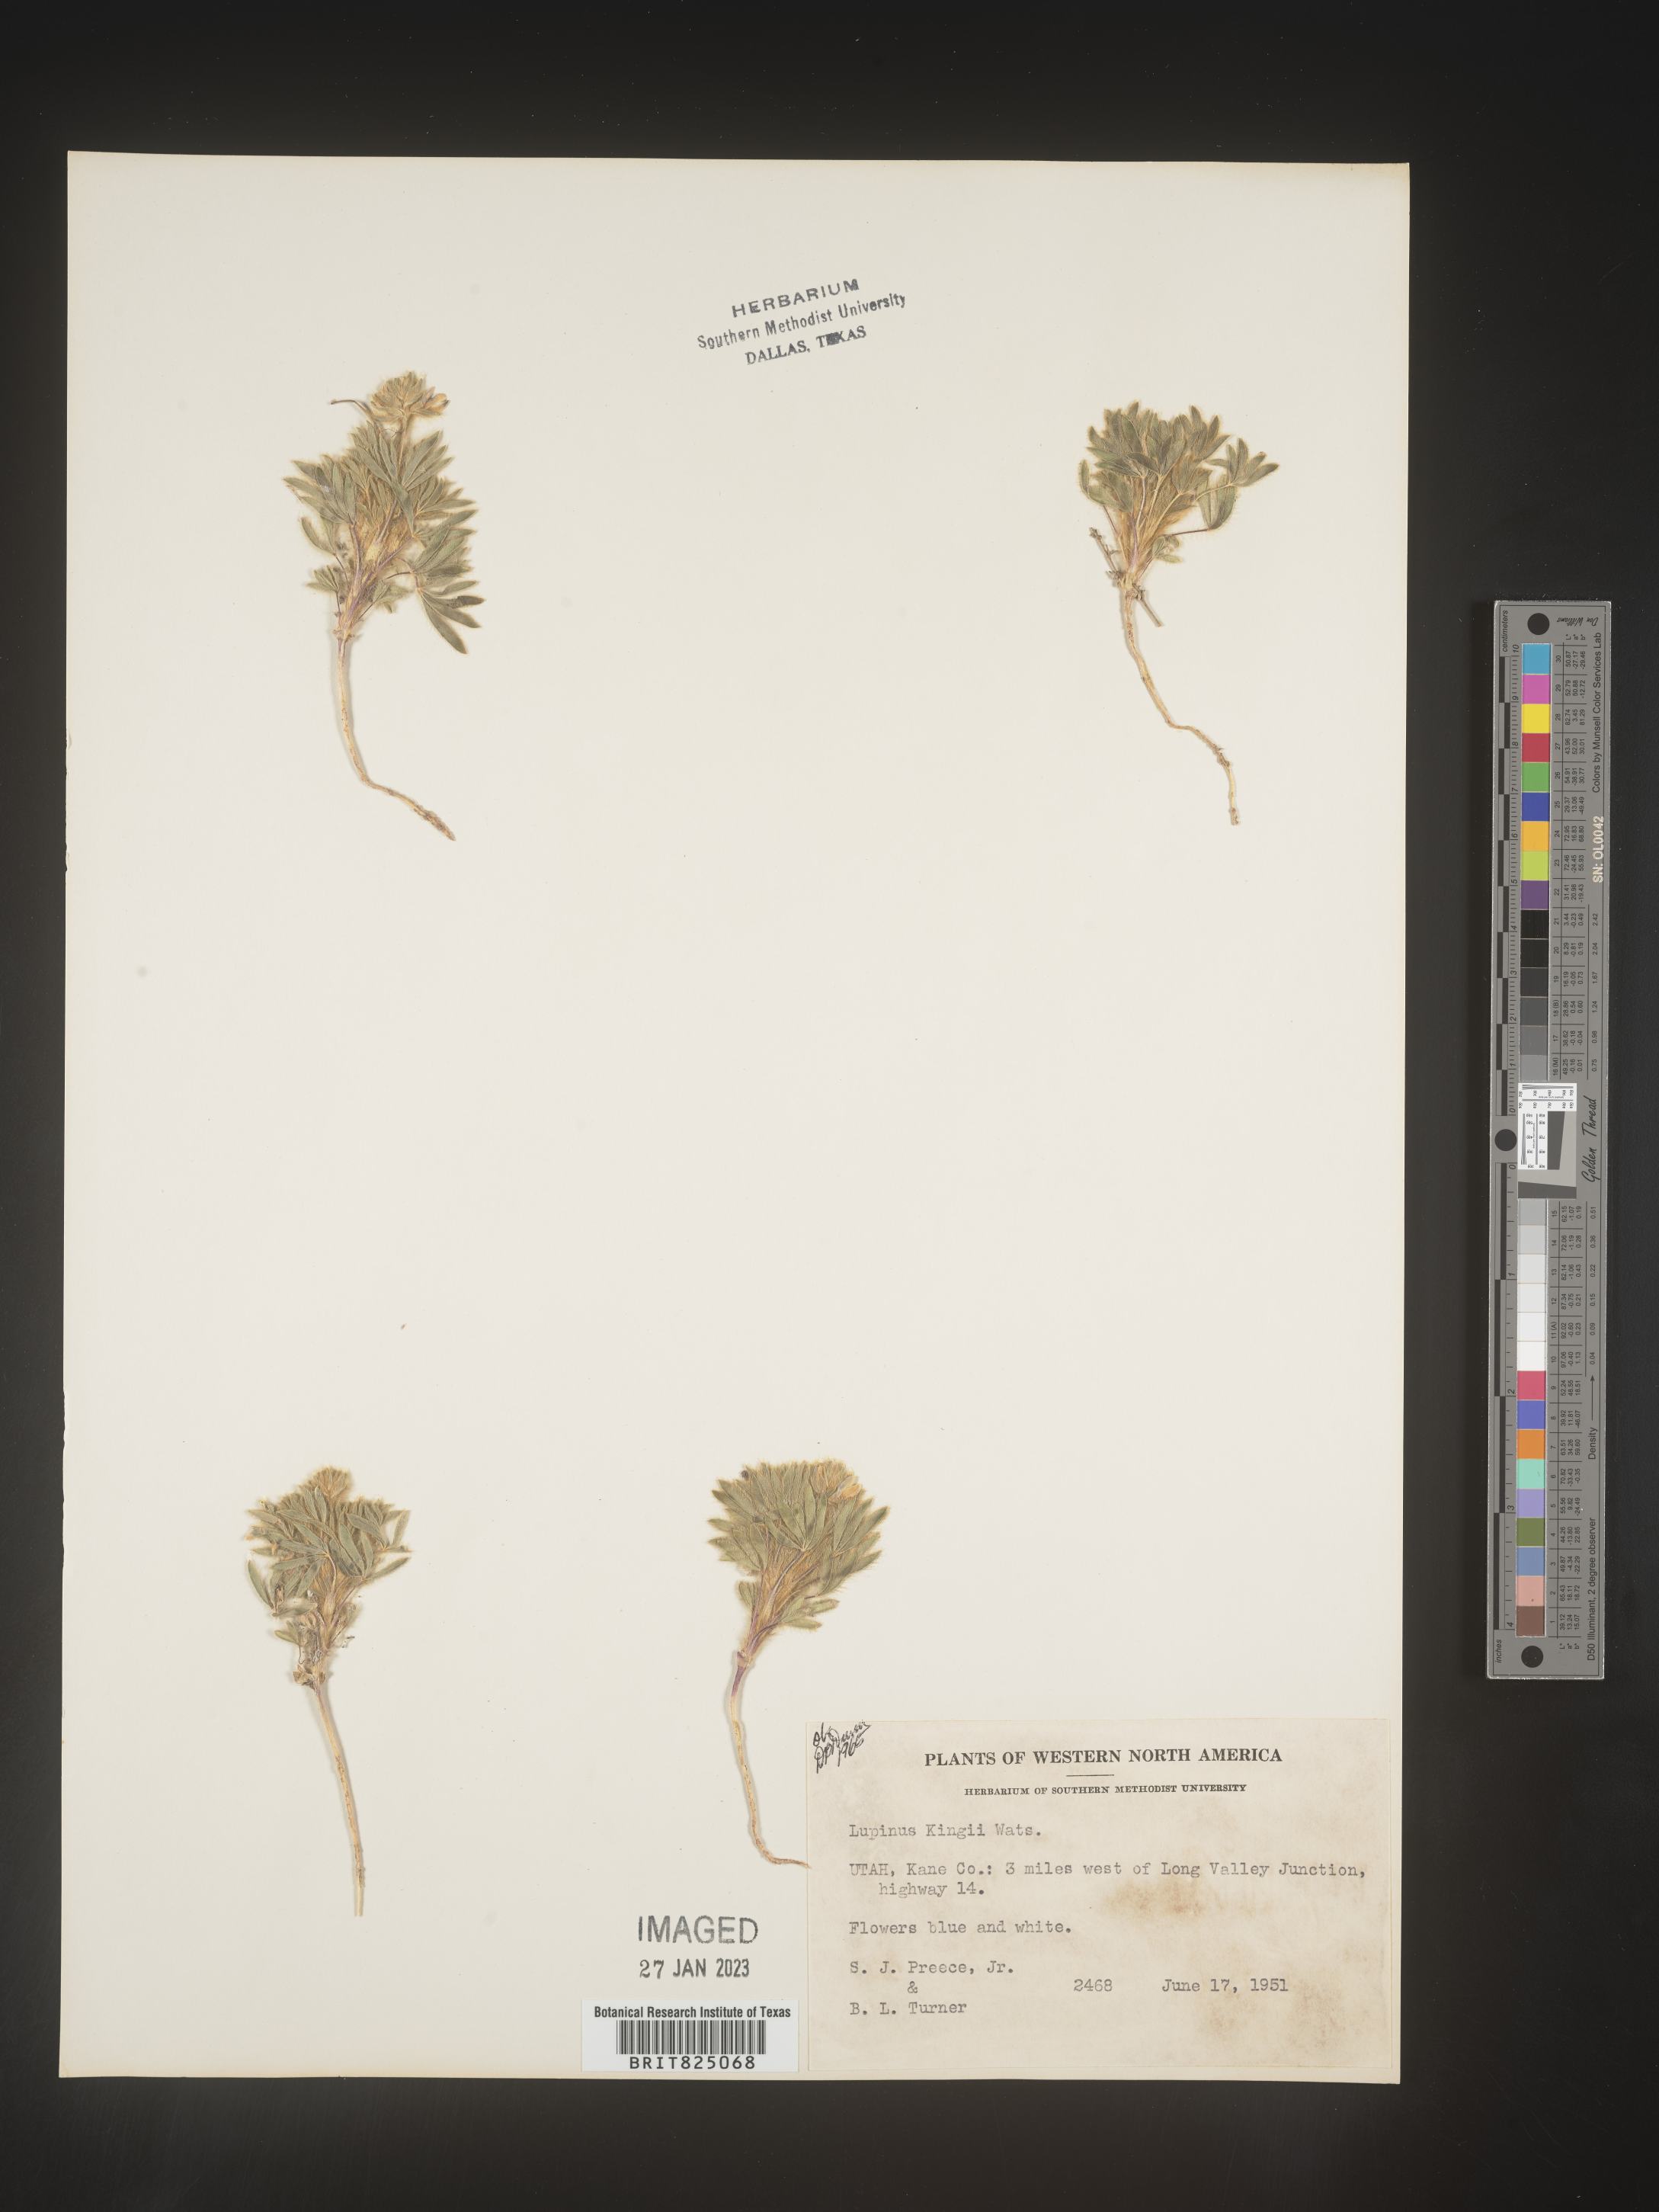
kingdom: Plantae
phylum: Tracheophyta
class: Magnoliopsida
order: Fabales
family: Fabaceae
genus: Lupinus
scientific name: Lupinus
